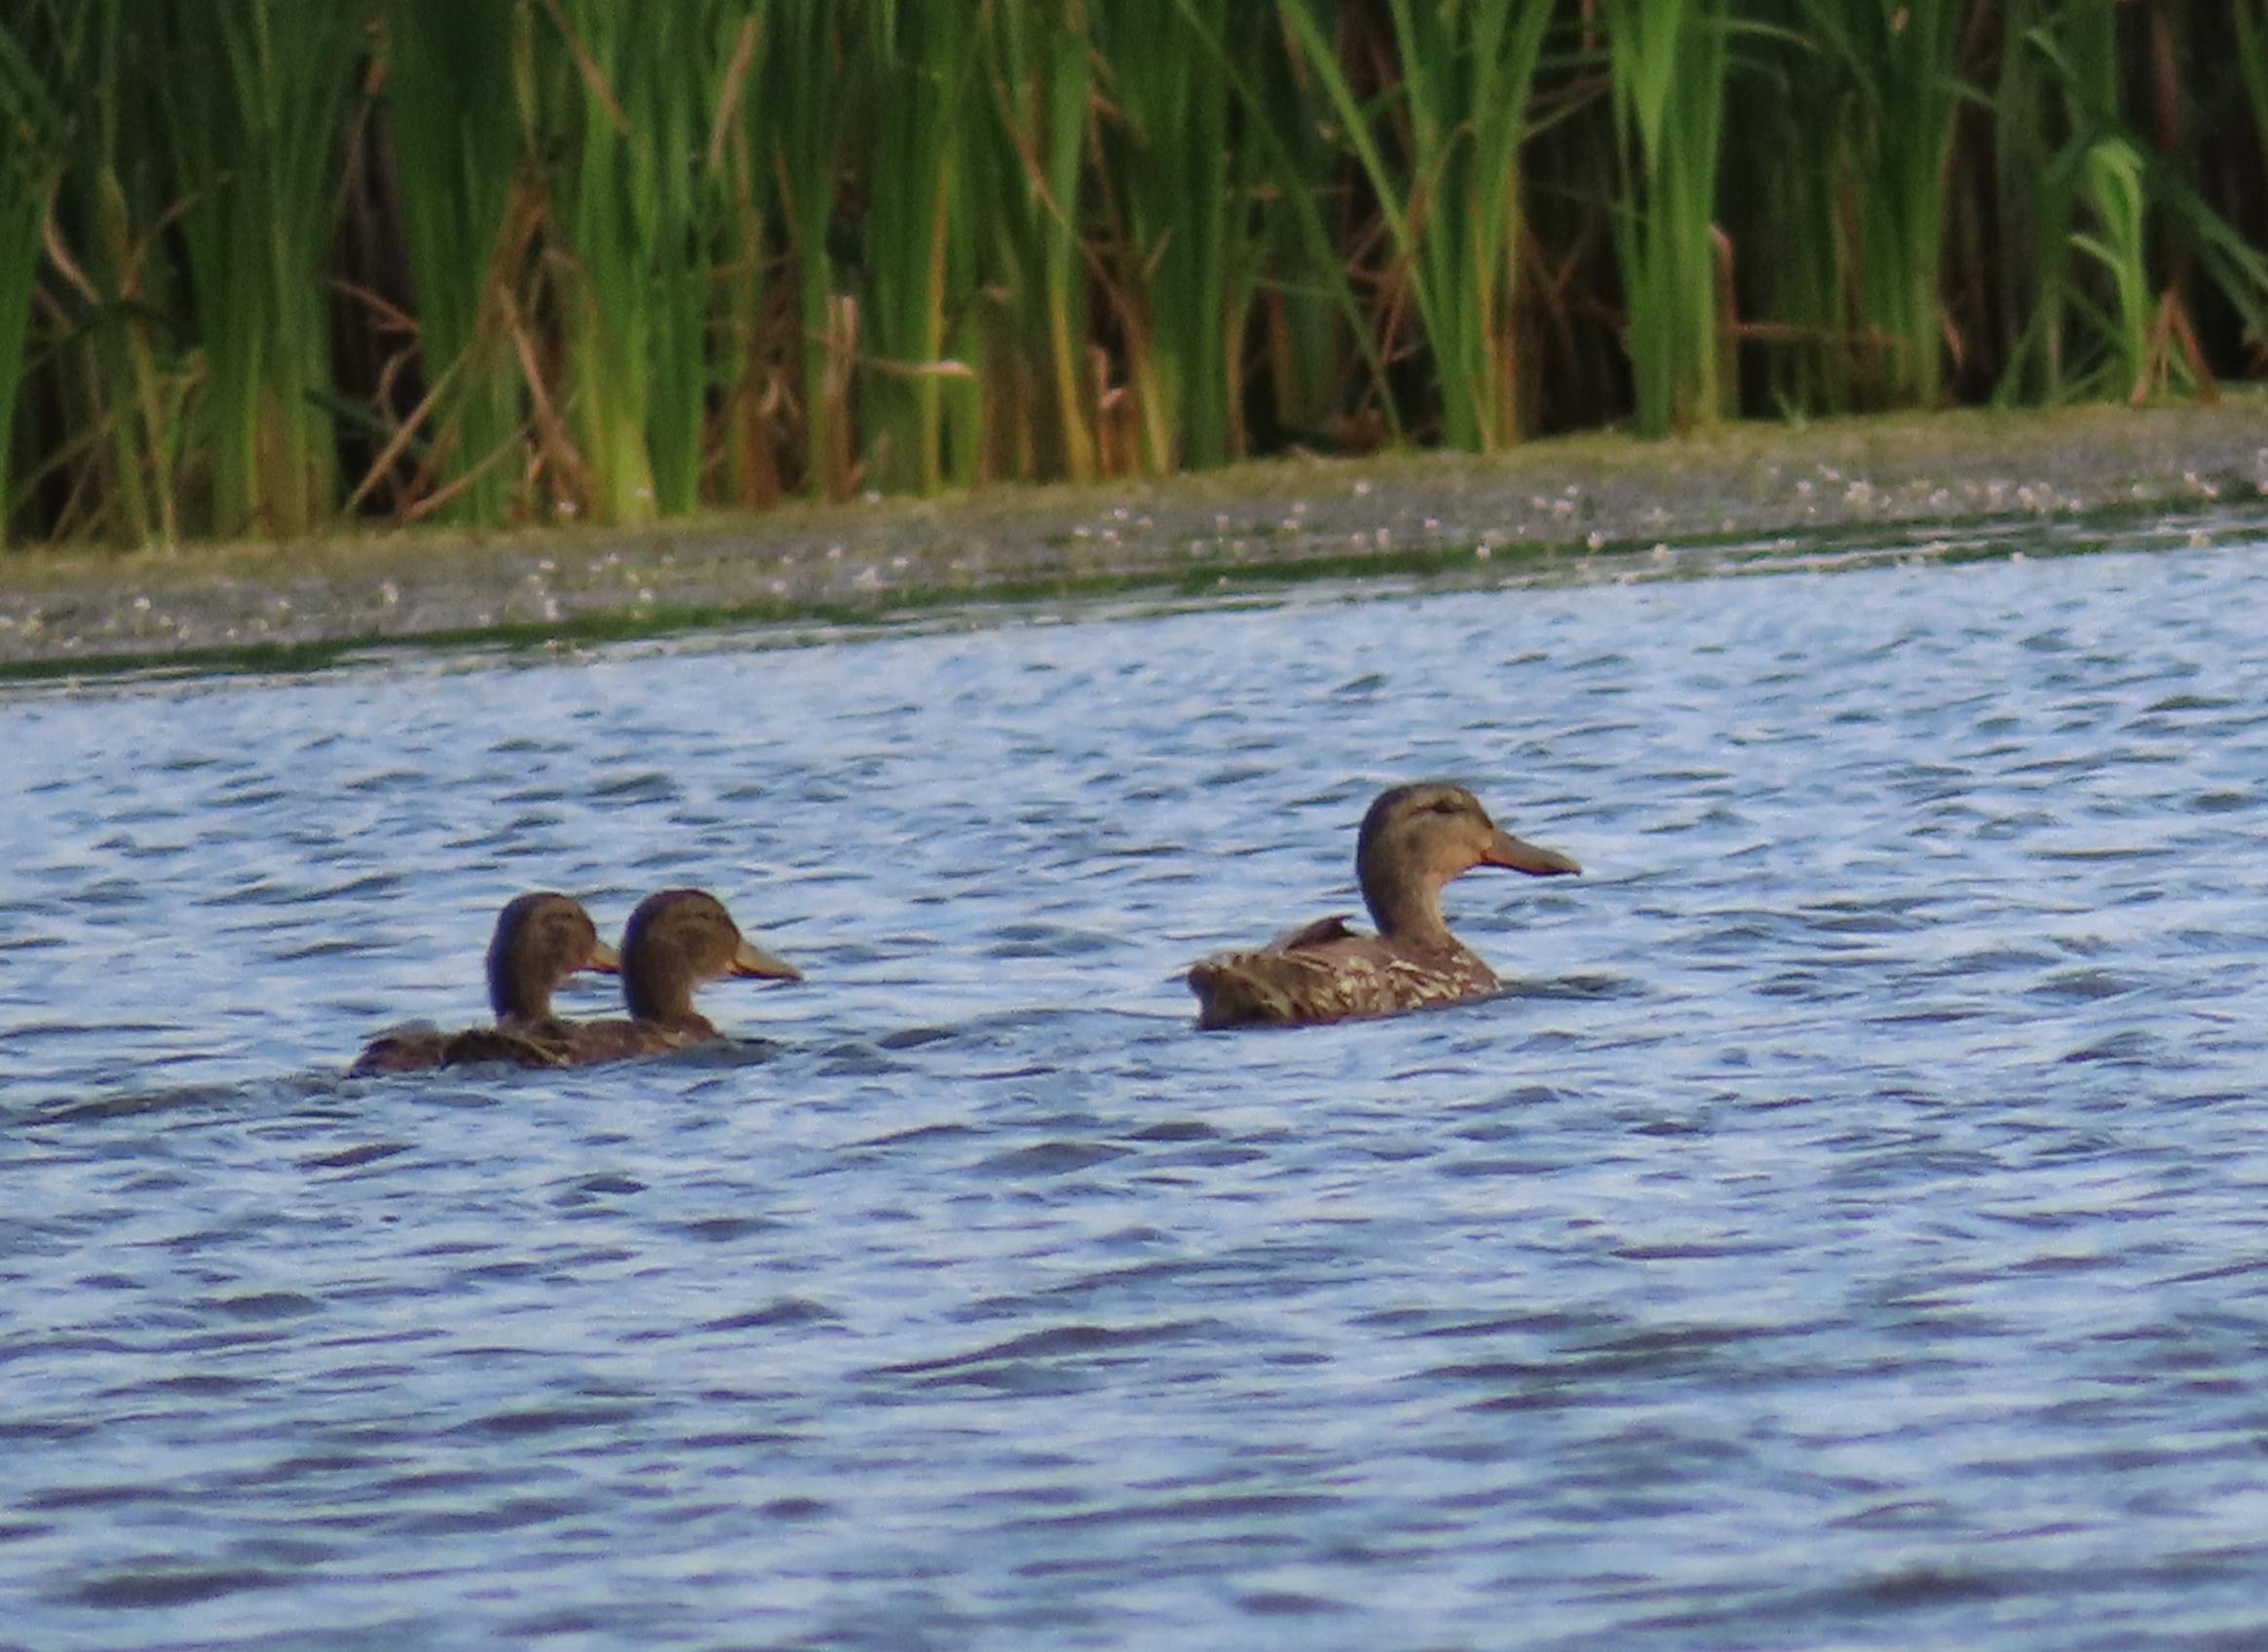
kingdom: Animalia
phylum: Chordata
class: Aves
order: Anseriformes
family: Anatidae
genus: Anas
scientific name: Anas platyrhynchos
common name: Gråand
